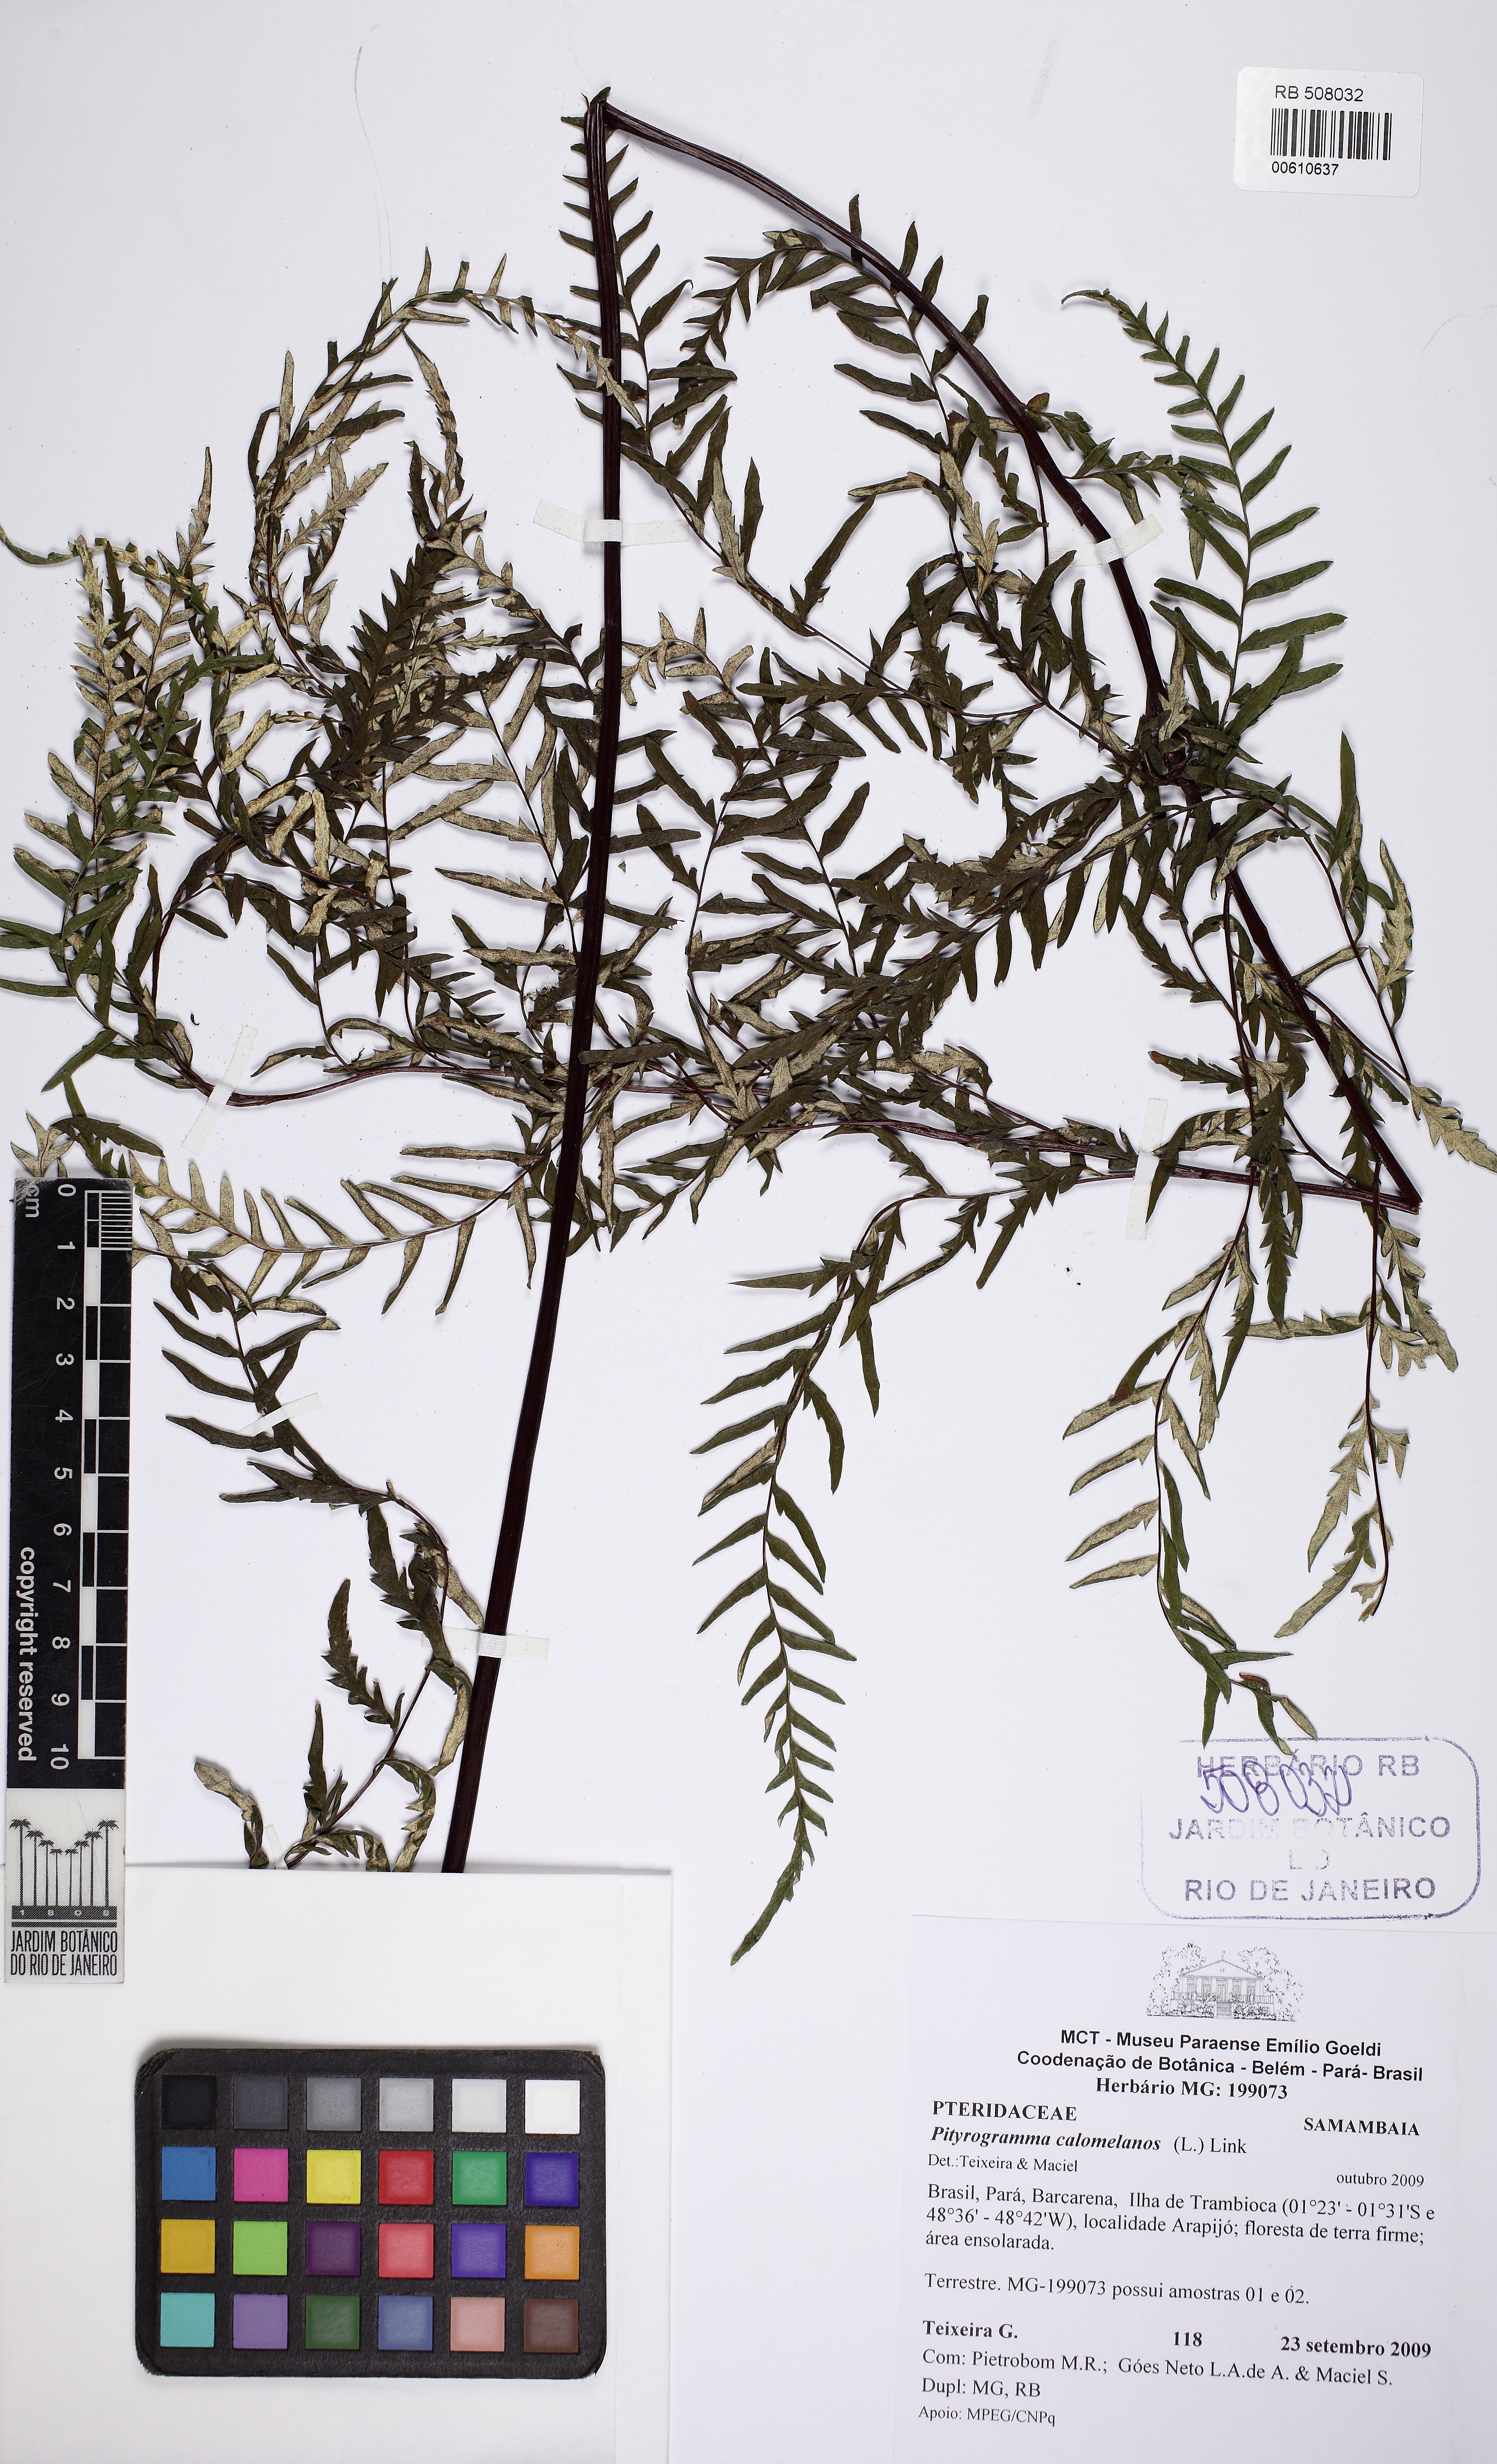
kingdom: Plantae
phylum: Tracheophyta
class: Polypodiopsida
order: Polypodiales
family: Pteridaceae
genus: Pityrogramma
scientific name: Pityrogramma calomelanos
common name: Dixie silverback fern
